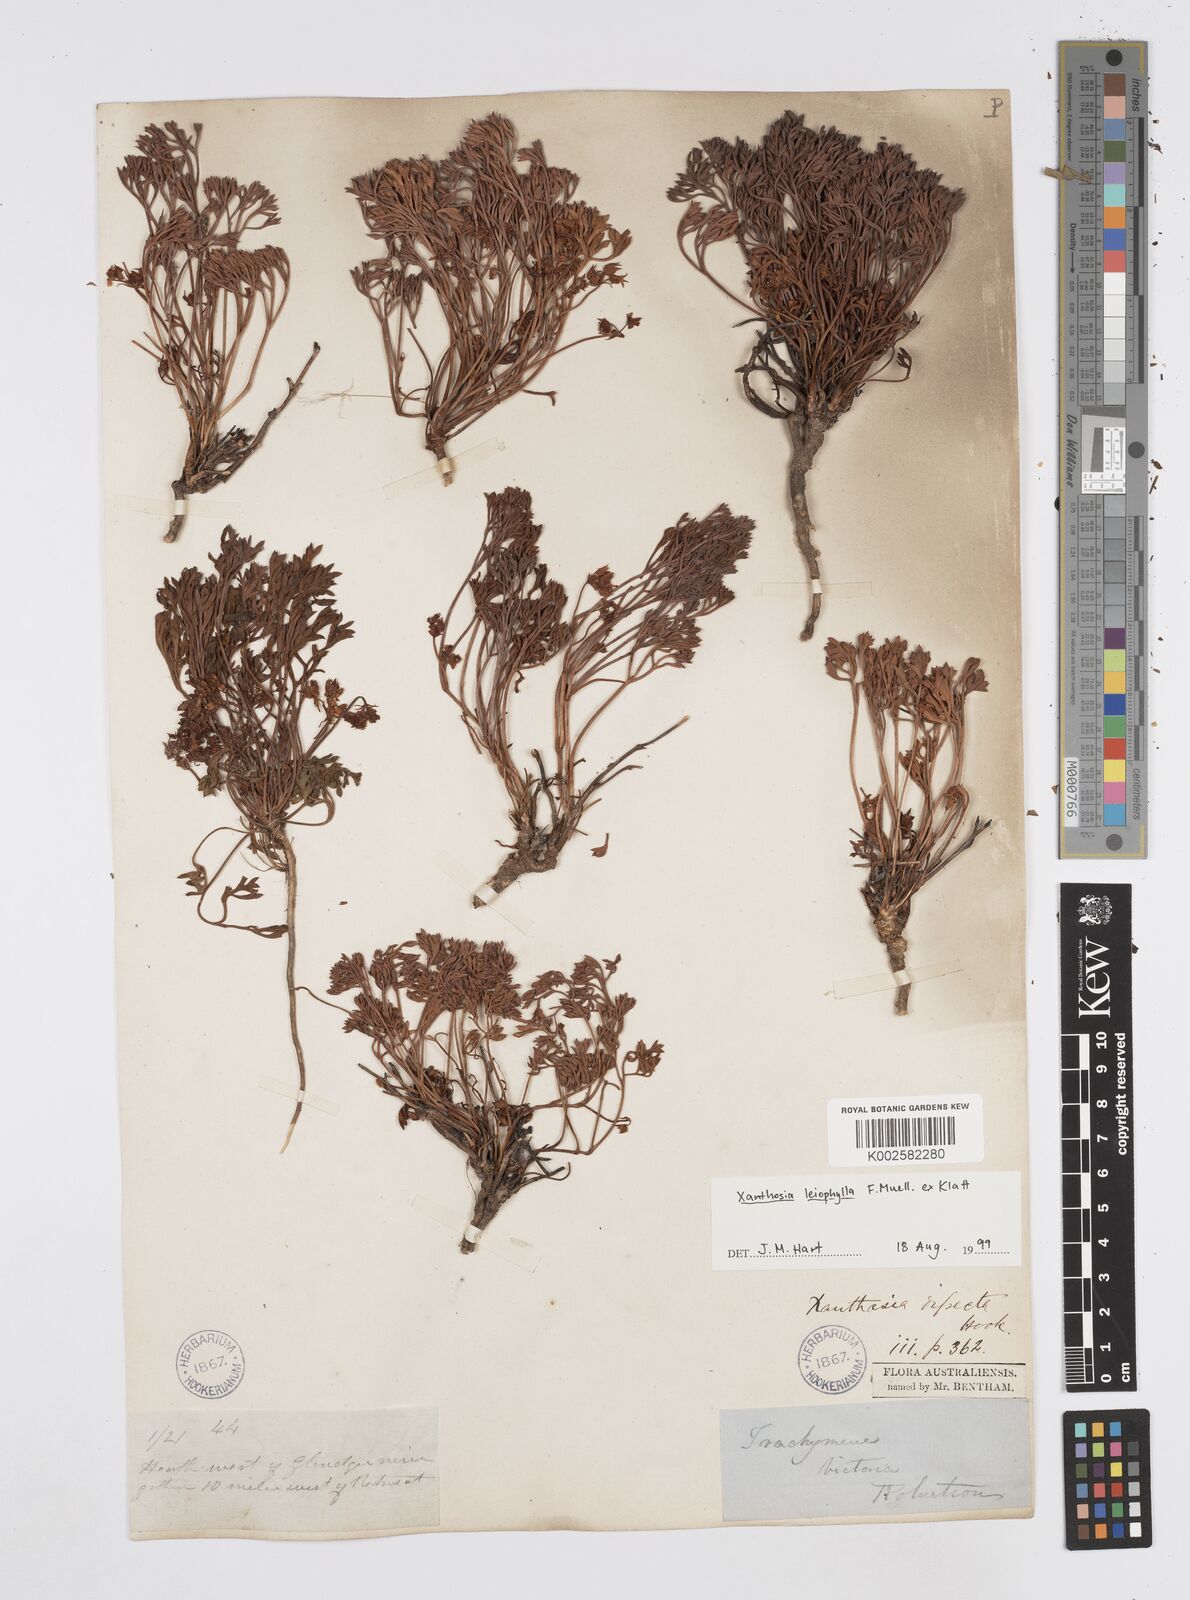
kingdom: Plantae
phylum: Tracheophyta
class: Magnoliopsida
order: Apiales
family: Apiaceae
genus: Xanthosia
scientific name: Xanthosia leiophylla
